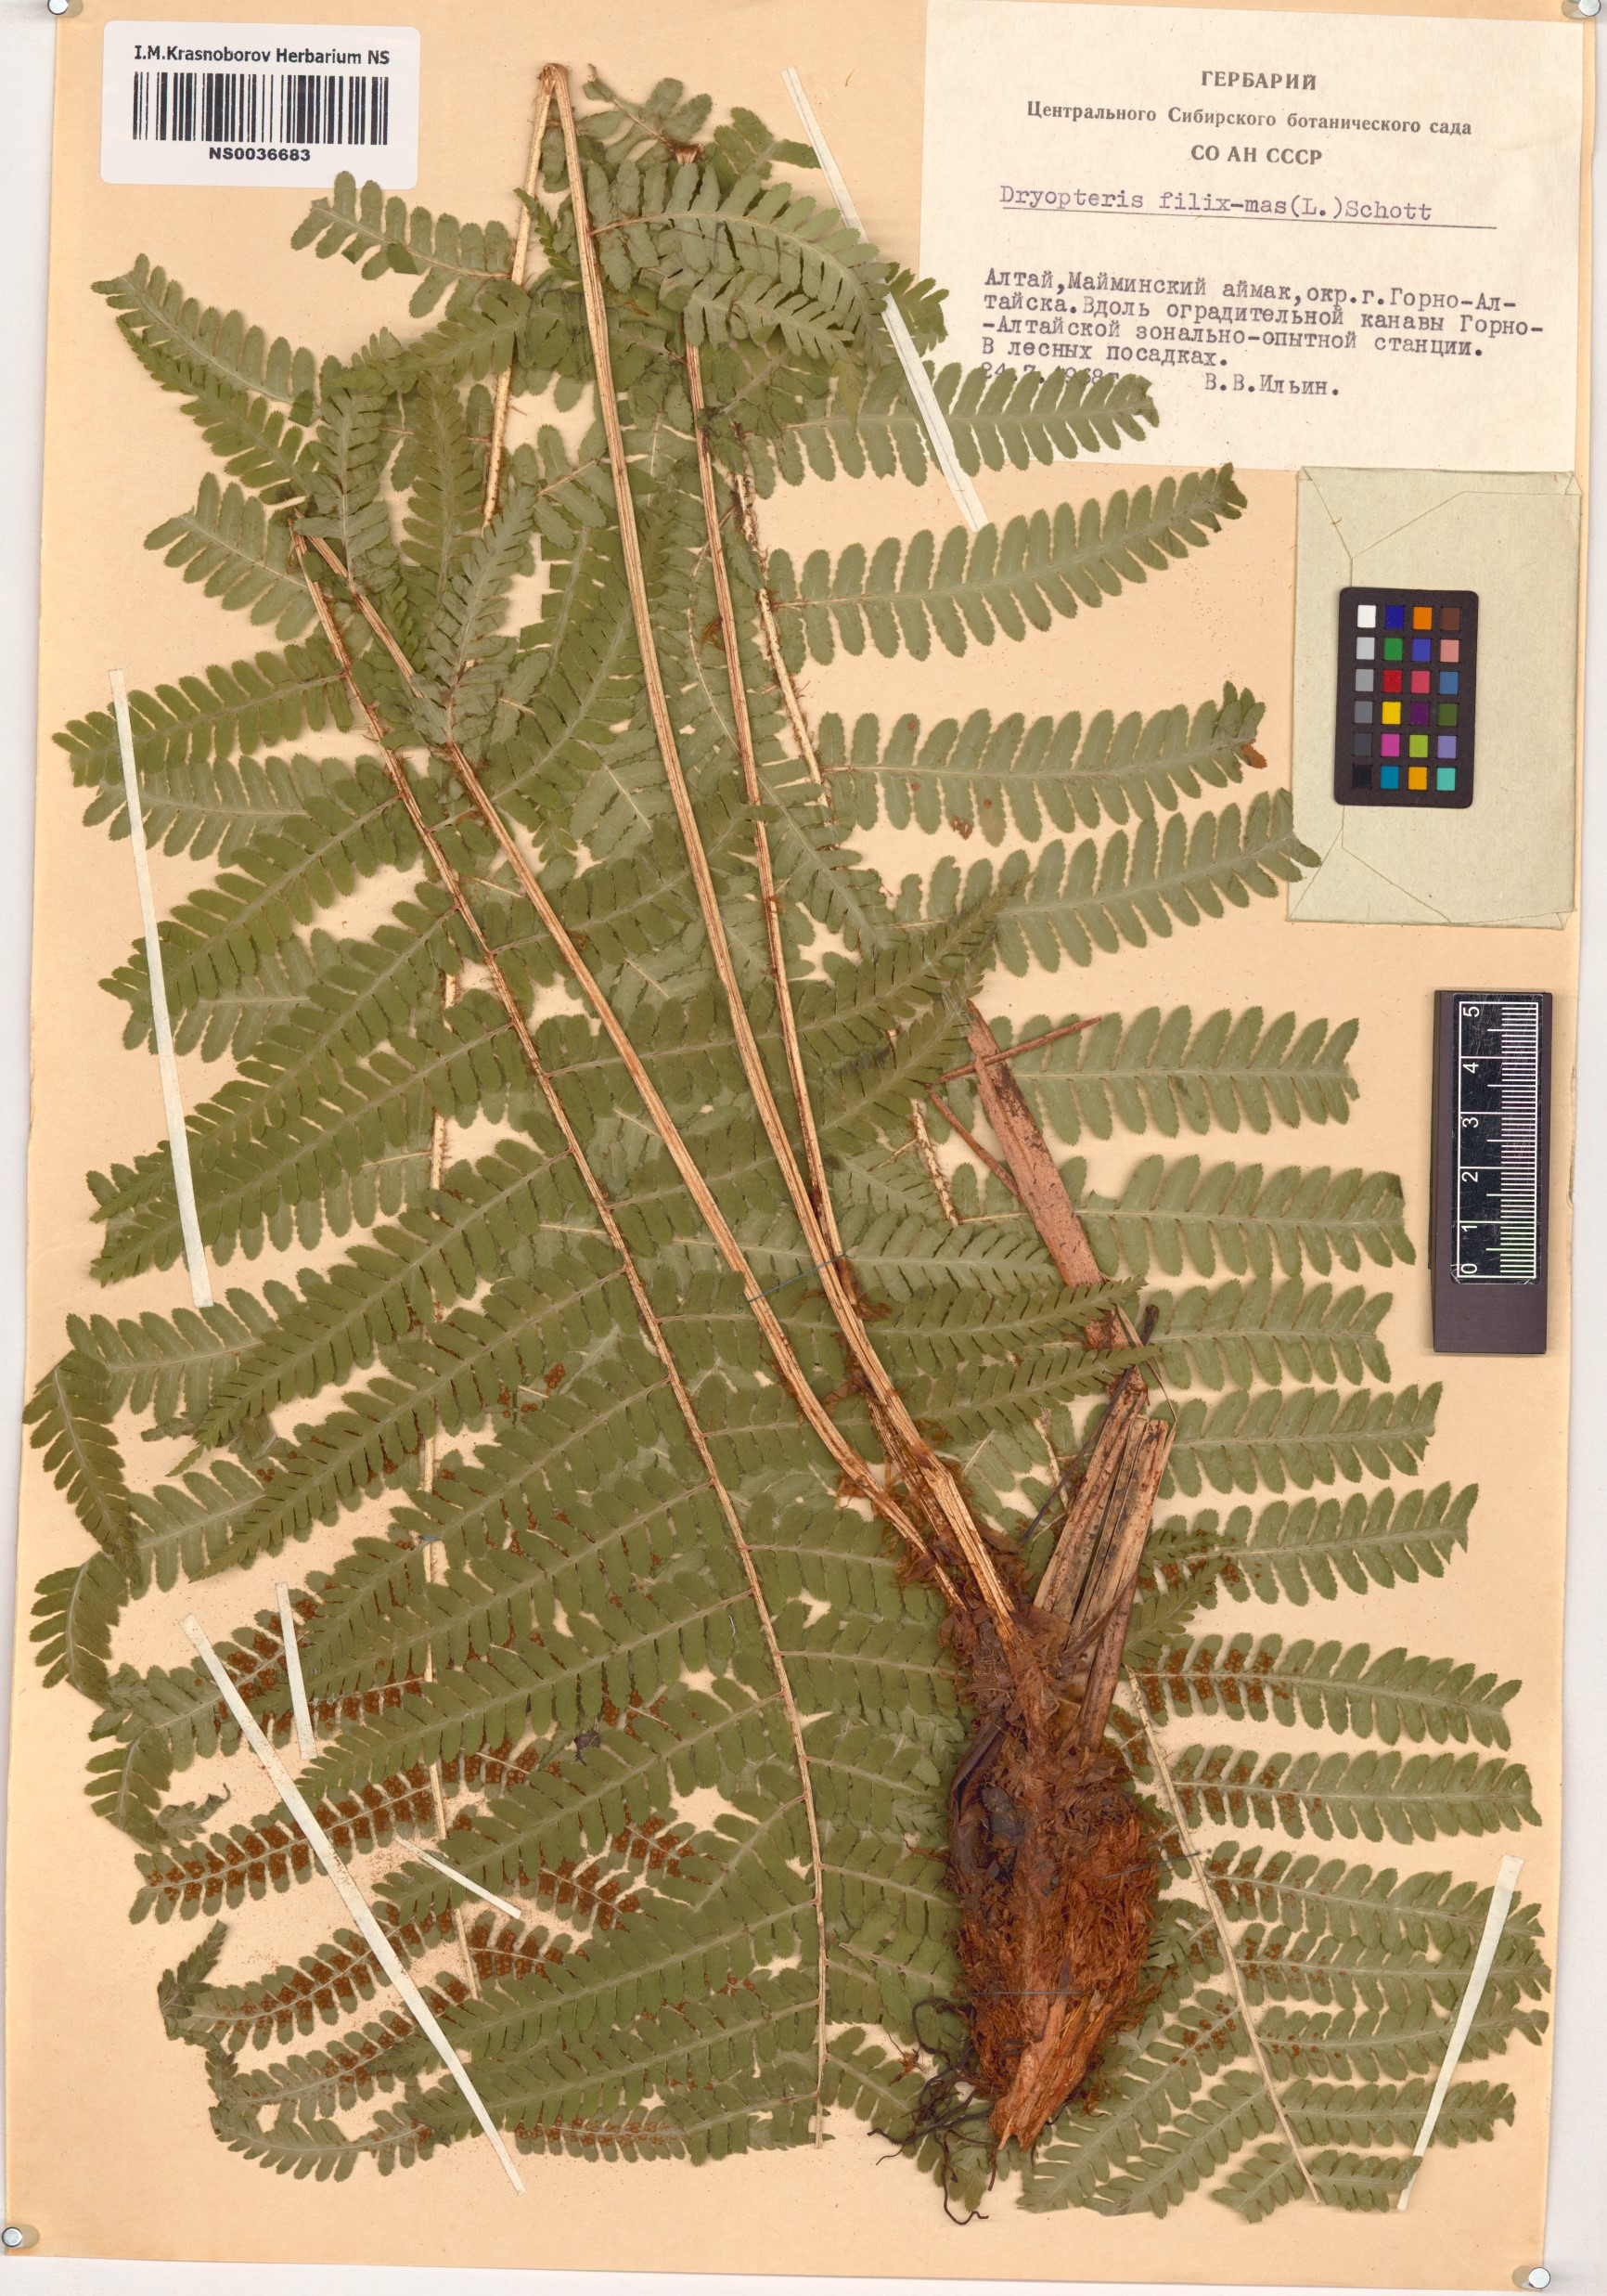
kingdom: Plantae
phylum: Tracheophyta
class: Polypodiopsida
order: Polypodiales
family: Dryopteridaceae
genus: Dryopteris
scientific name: Dryopteris filix-mas
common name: Male fern
